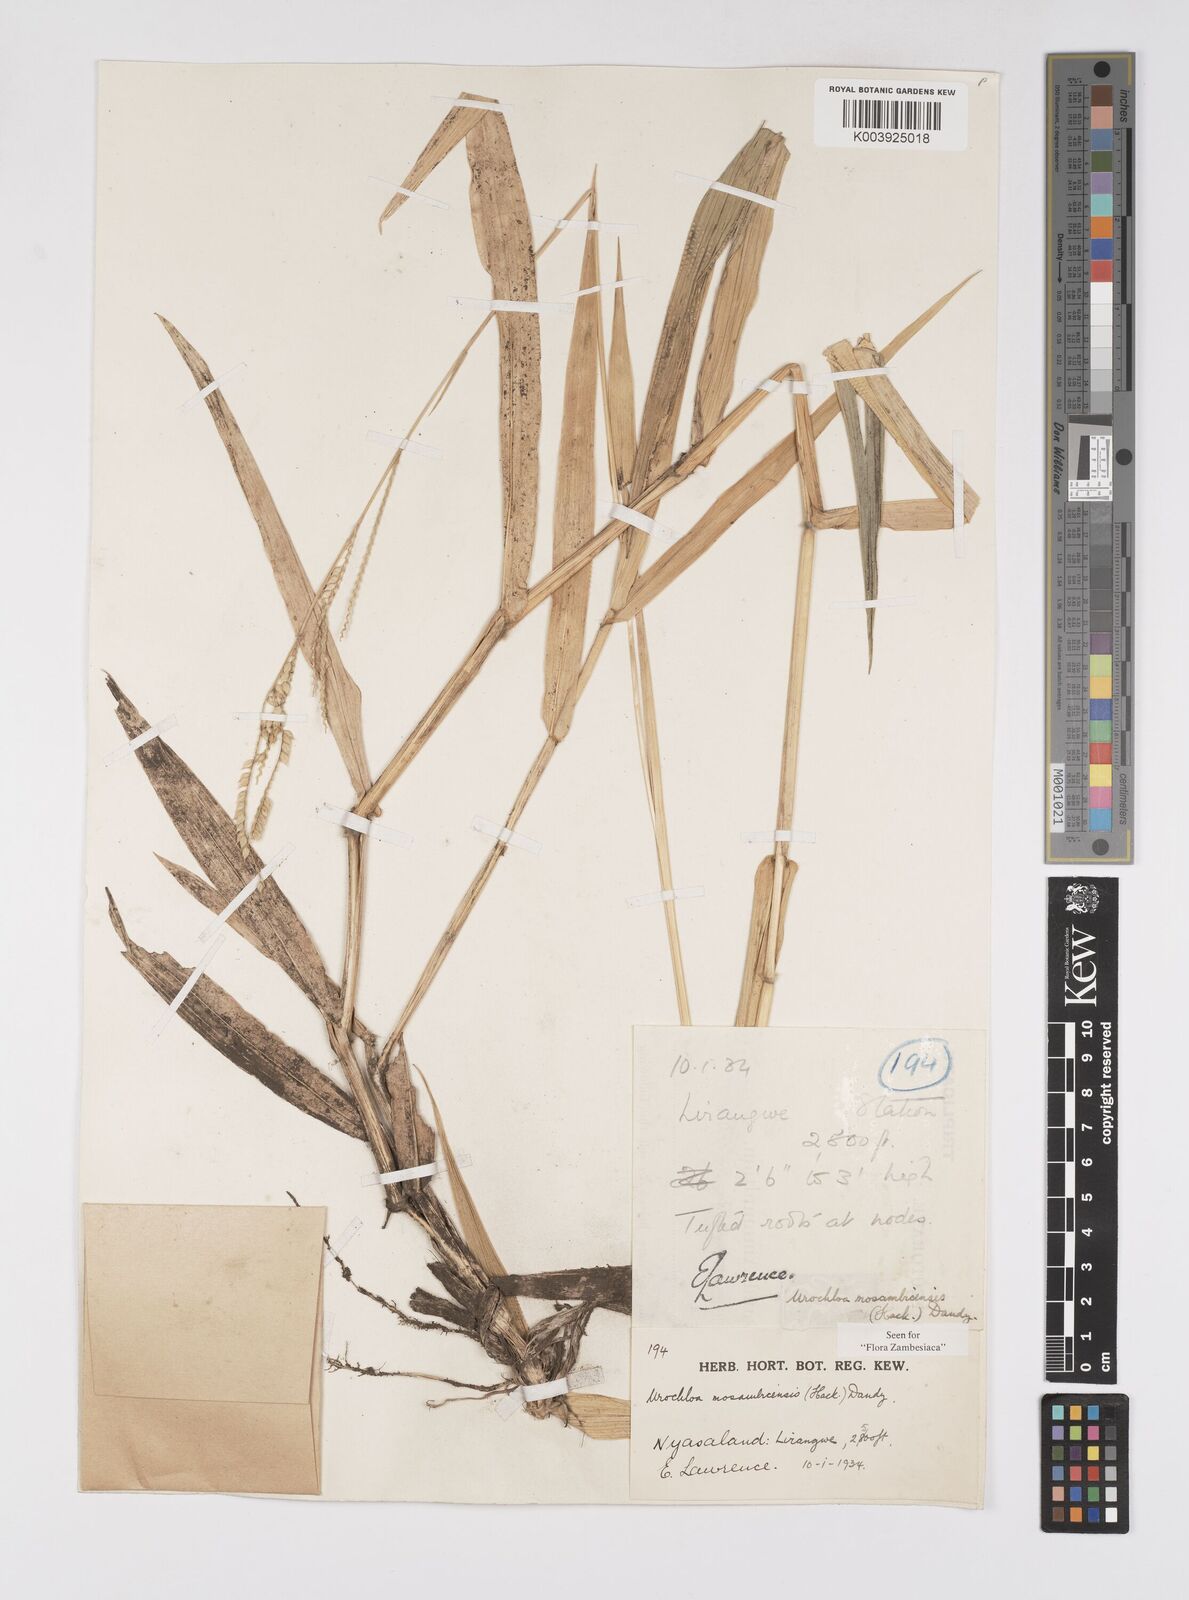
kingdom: Plantae
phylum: Tracheophyta
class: Liliopsida
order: Poales
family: Poaceae
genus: Urochloa
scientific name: Urochloa trichopus
